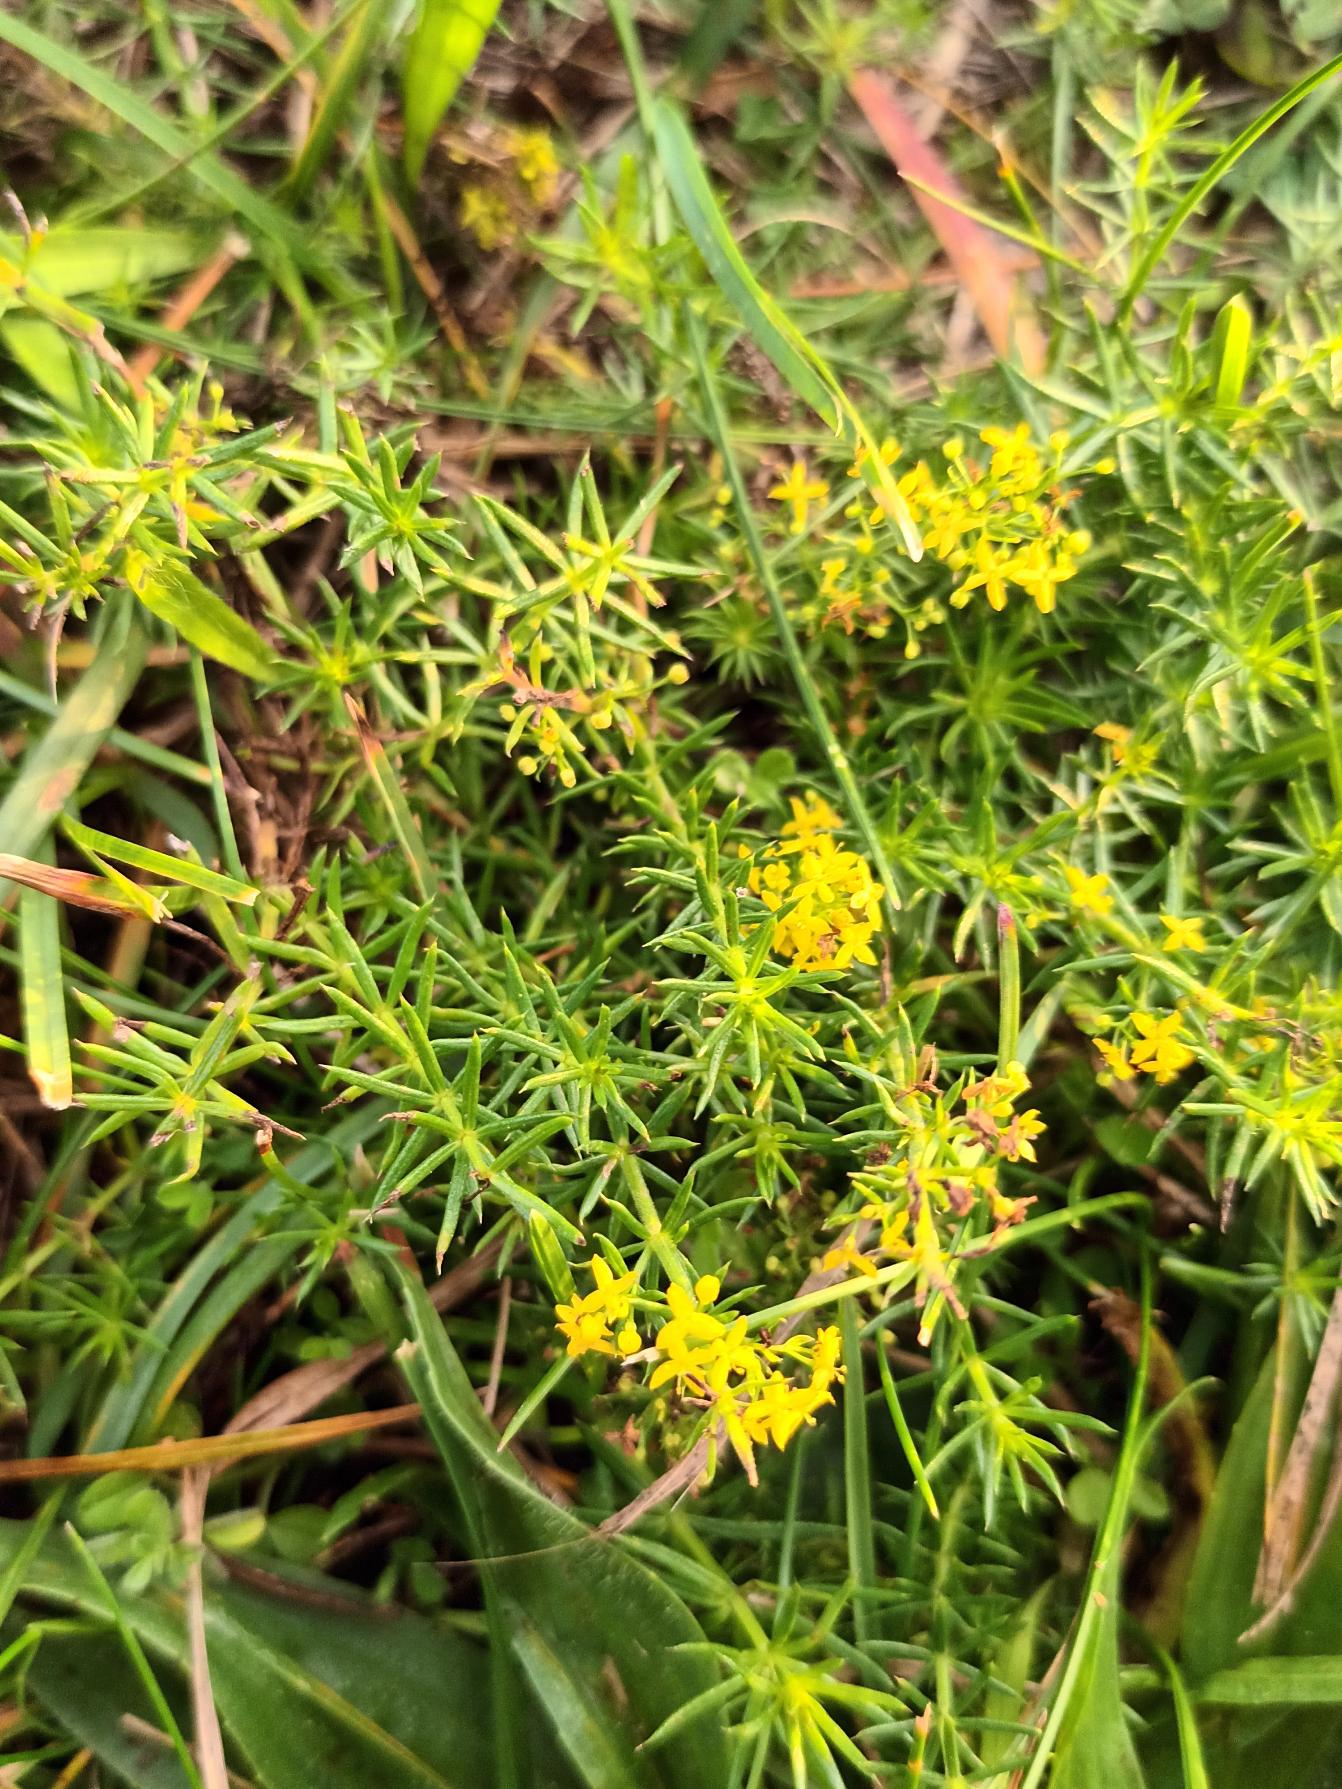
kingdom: Plantae
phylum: Tracheophyta
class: Magnoliopsida
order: Gentianales
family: Rubiaceae
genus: Galium
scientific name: Galium verum
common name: Gul snerre
